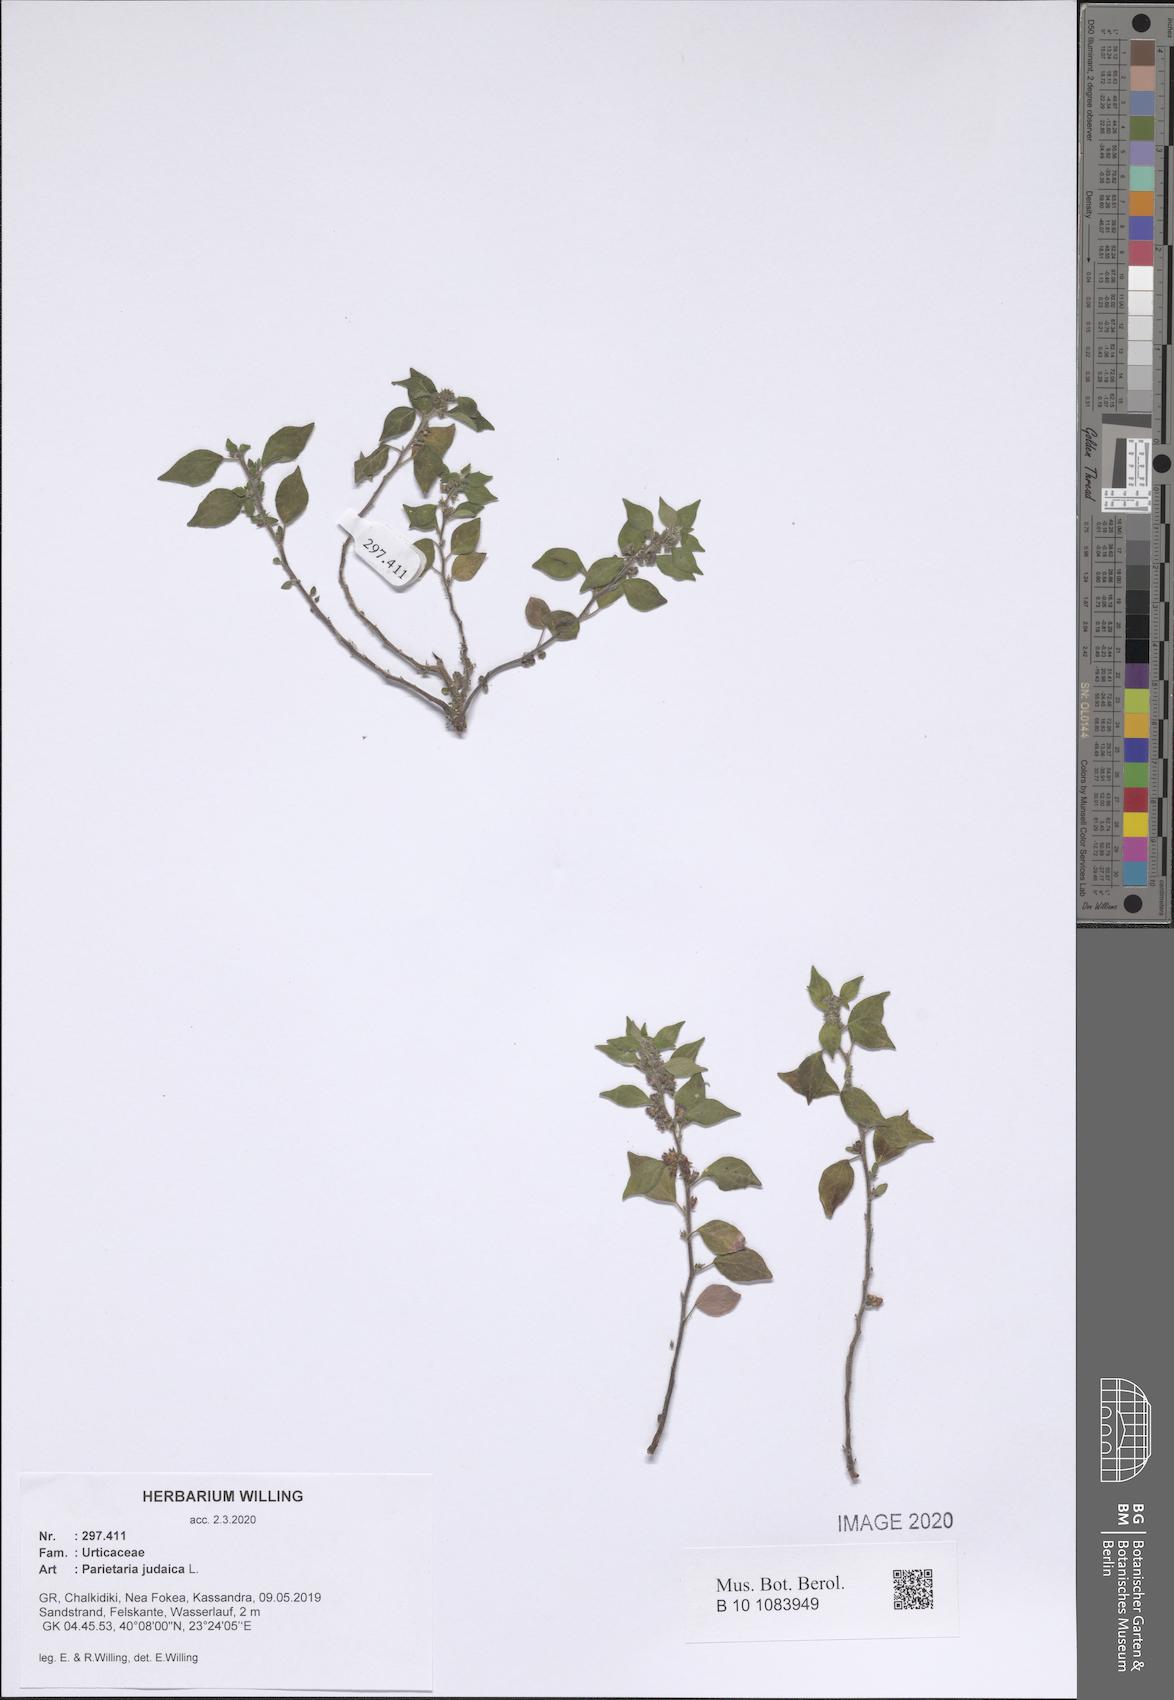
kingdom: Plantae
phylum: Tracheophyta
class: Magnoliopsida
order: Rosales
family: Urticaceae
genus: Parietaria
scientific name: Parietaria judaica
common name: Pellitory-of-the-wall
